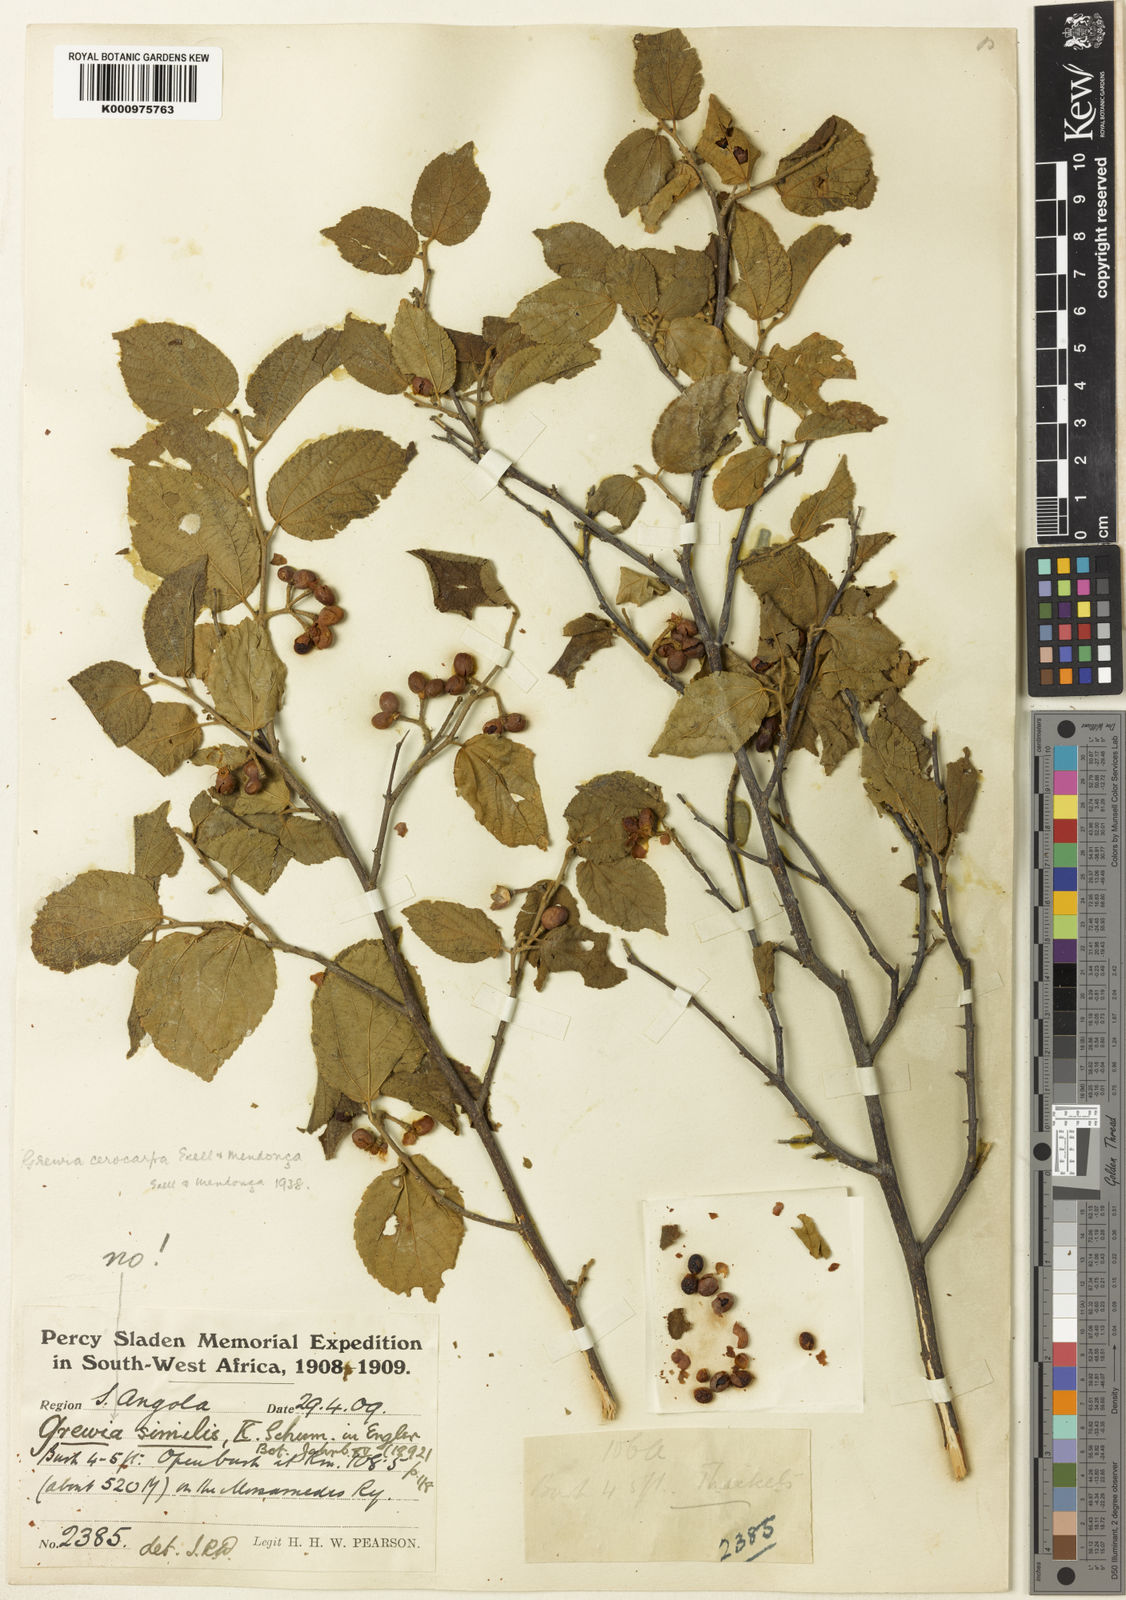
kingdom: Plantae
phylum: Tracheophyta
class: Magnoliopsida
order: Malvales
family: Malvaceae
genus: Grewia
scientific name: Grewia
